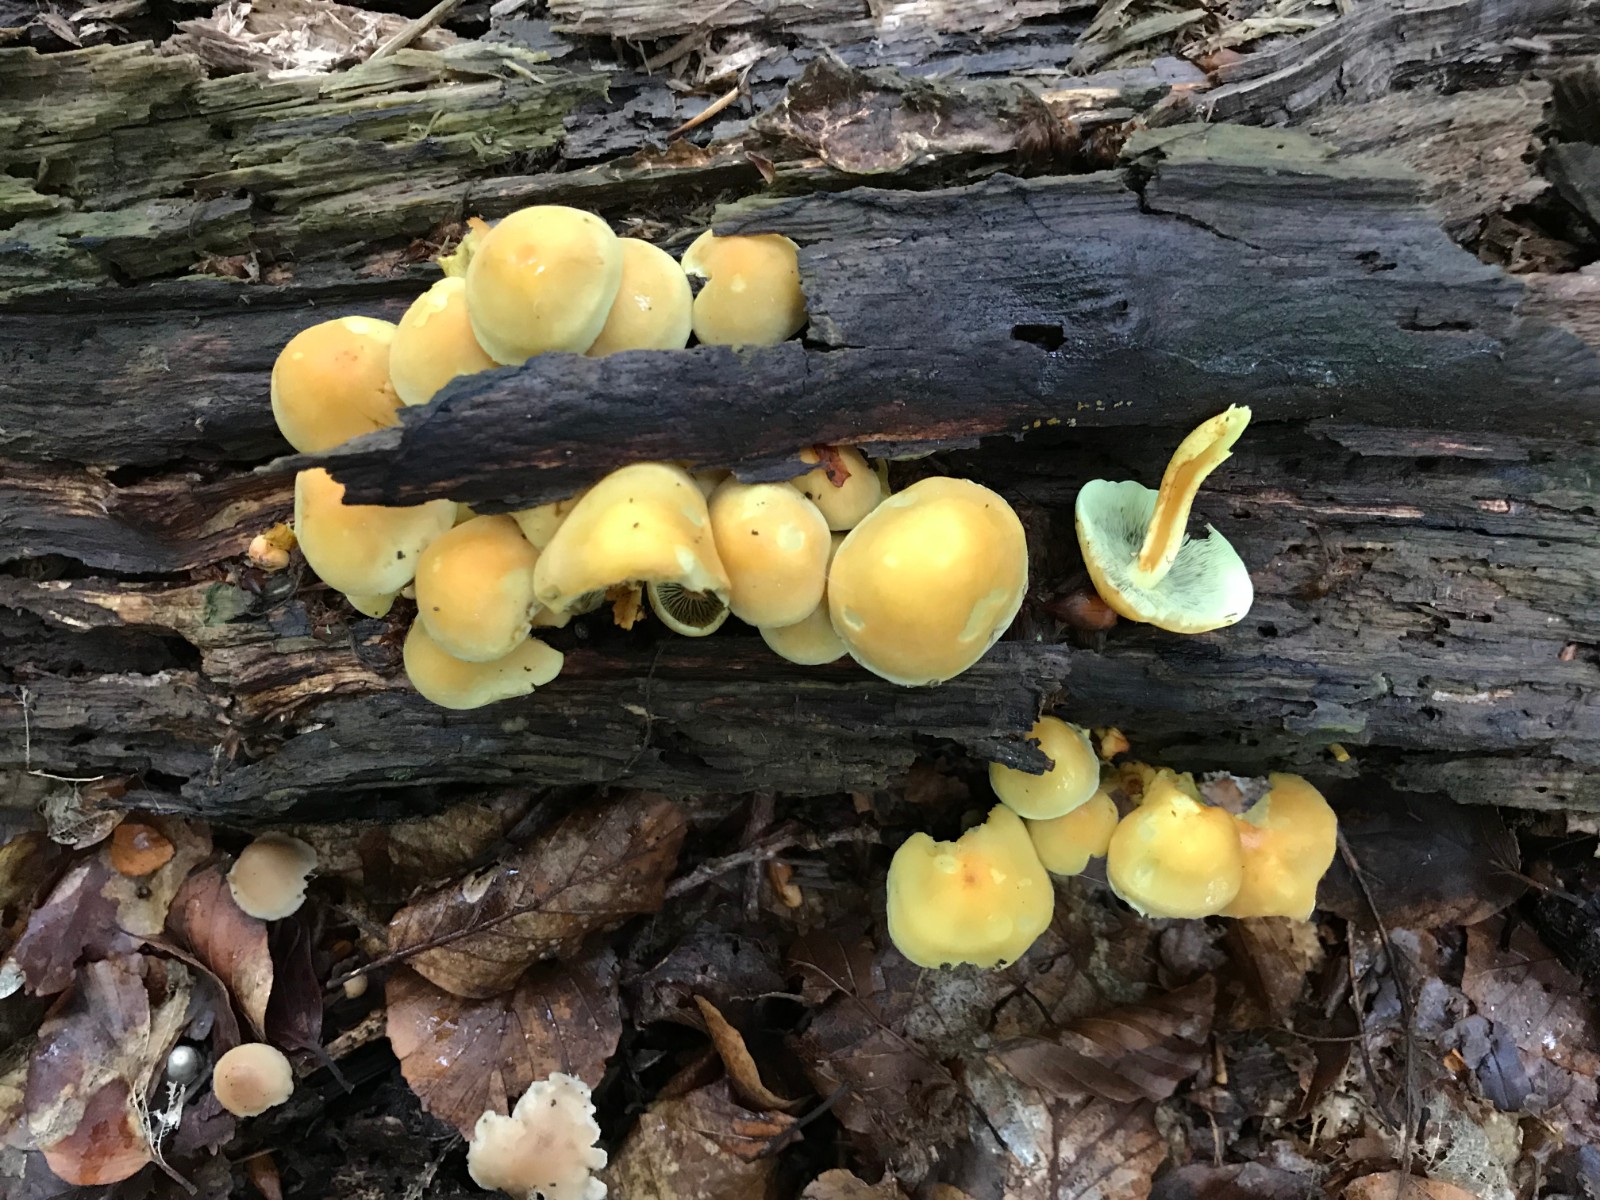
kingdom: Fungi
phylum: Basidiomycota
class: Agaricomycetes
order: Agaricales
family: Strophariaceae
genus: Hypholoma
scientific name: Hypholoma fasciculare
